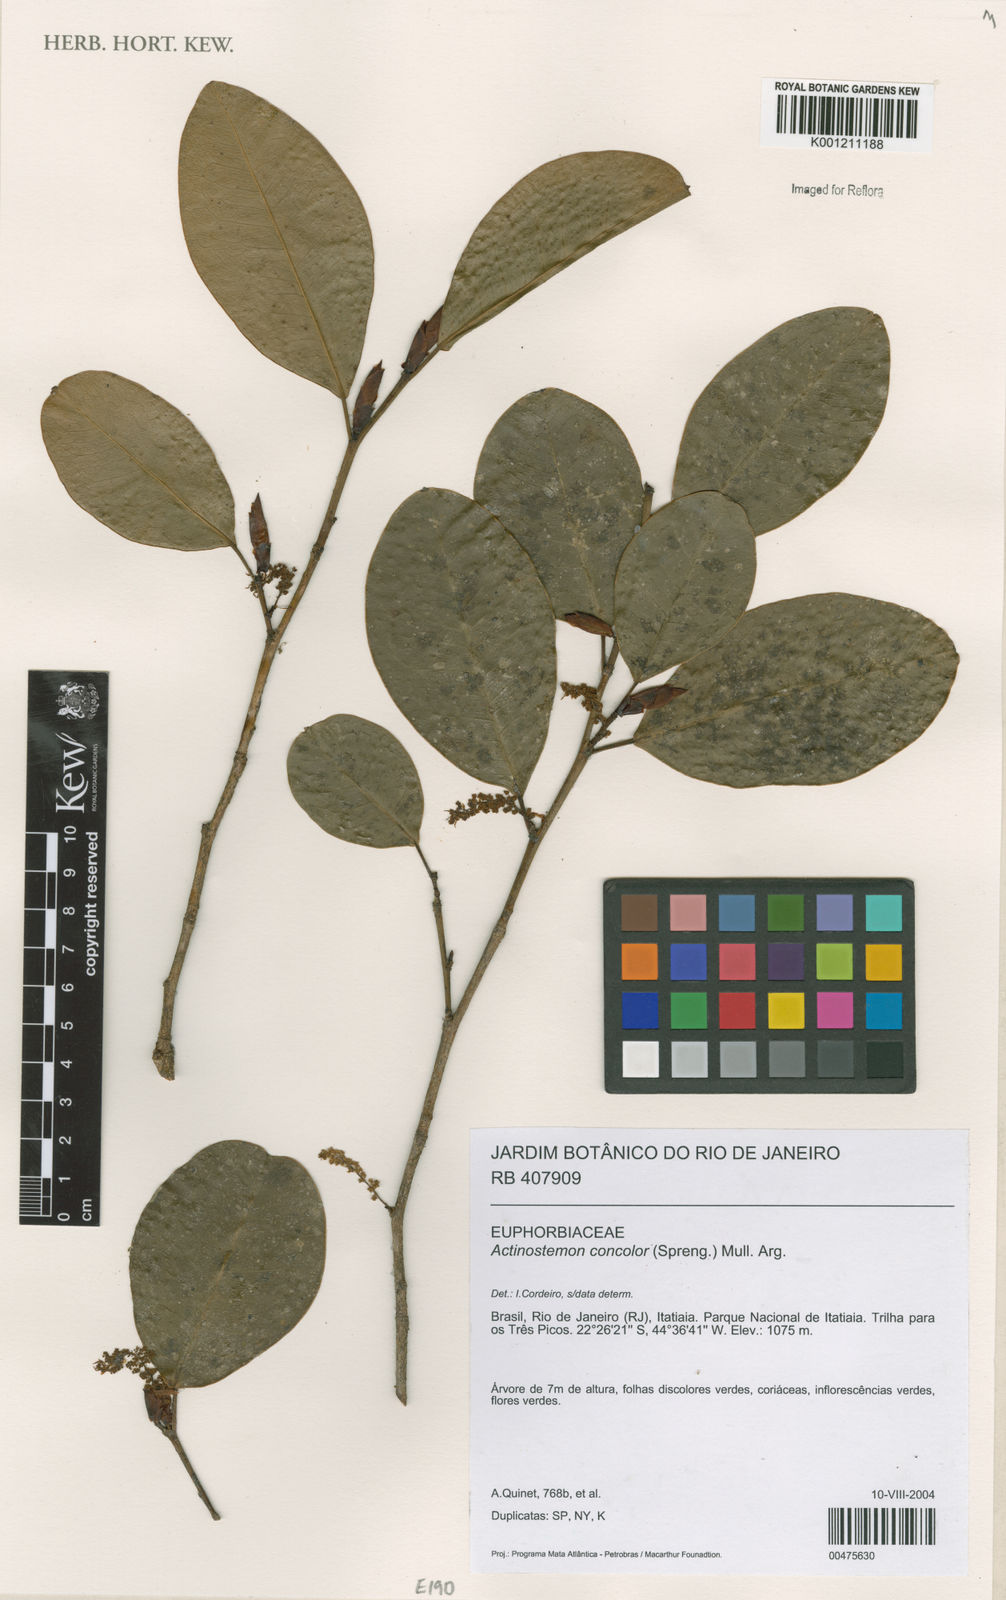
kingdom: Plantae
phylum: Tracheophyta
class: Magnoliopsida
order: Malpighiales
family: Euphorbiaceae
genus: Actinostemon
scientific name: Actinostemon
